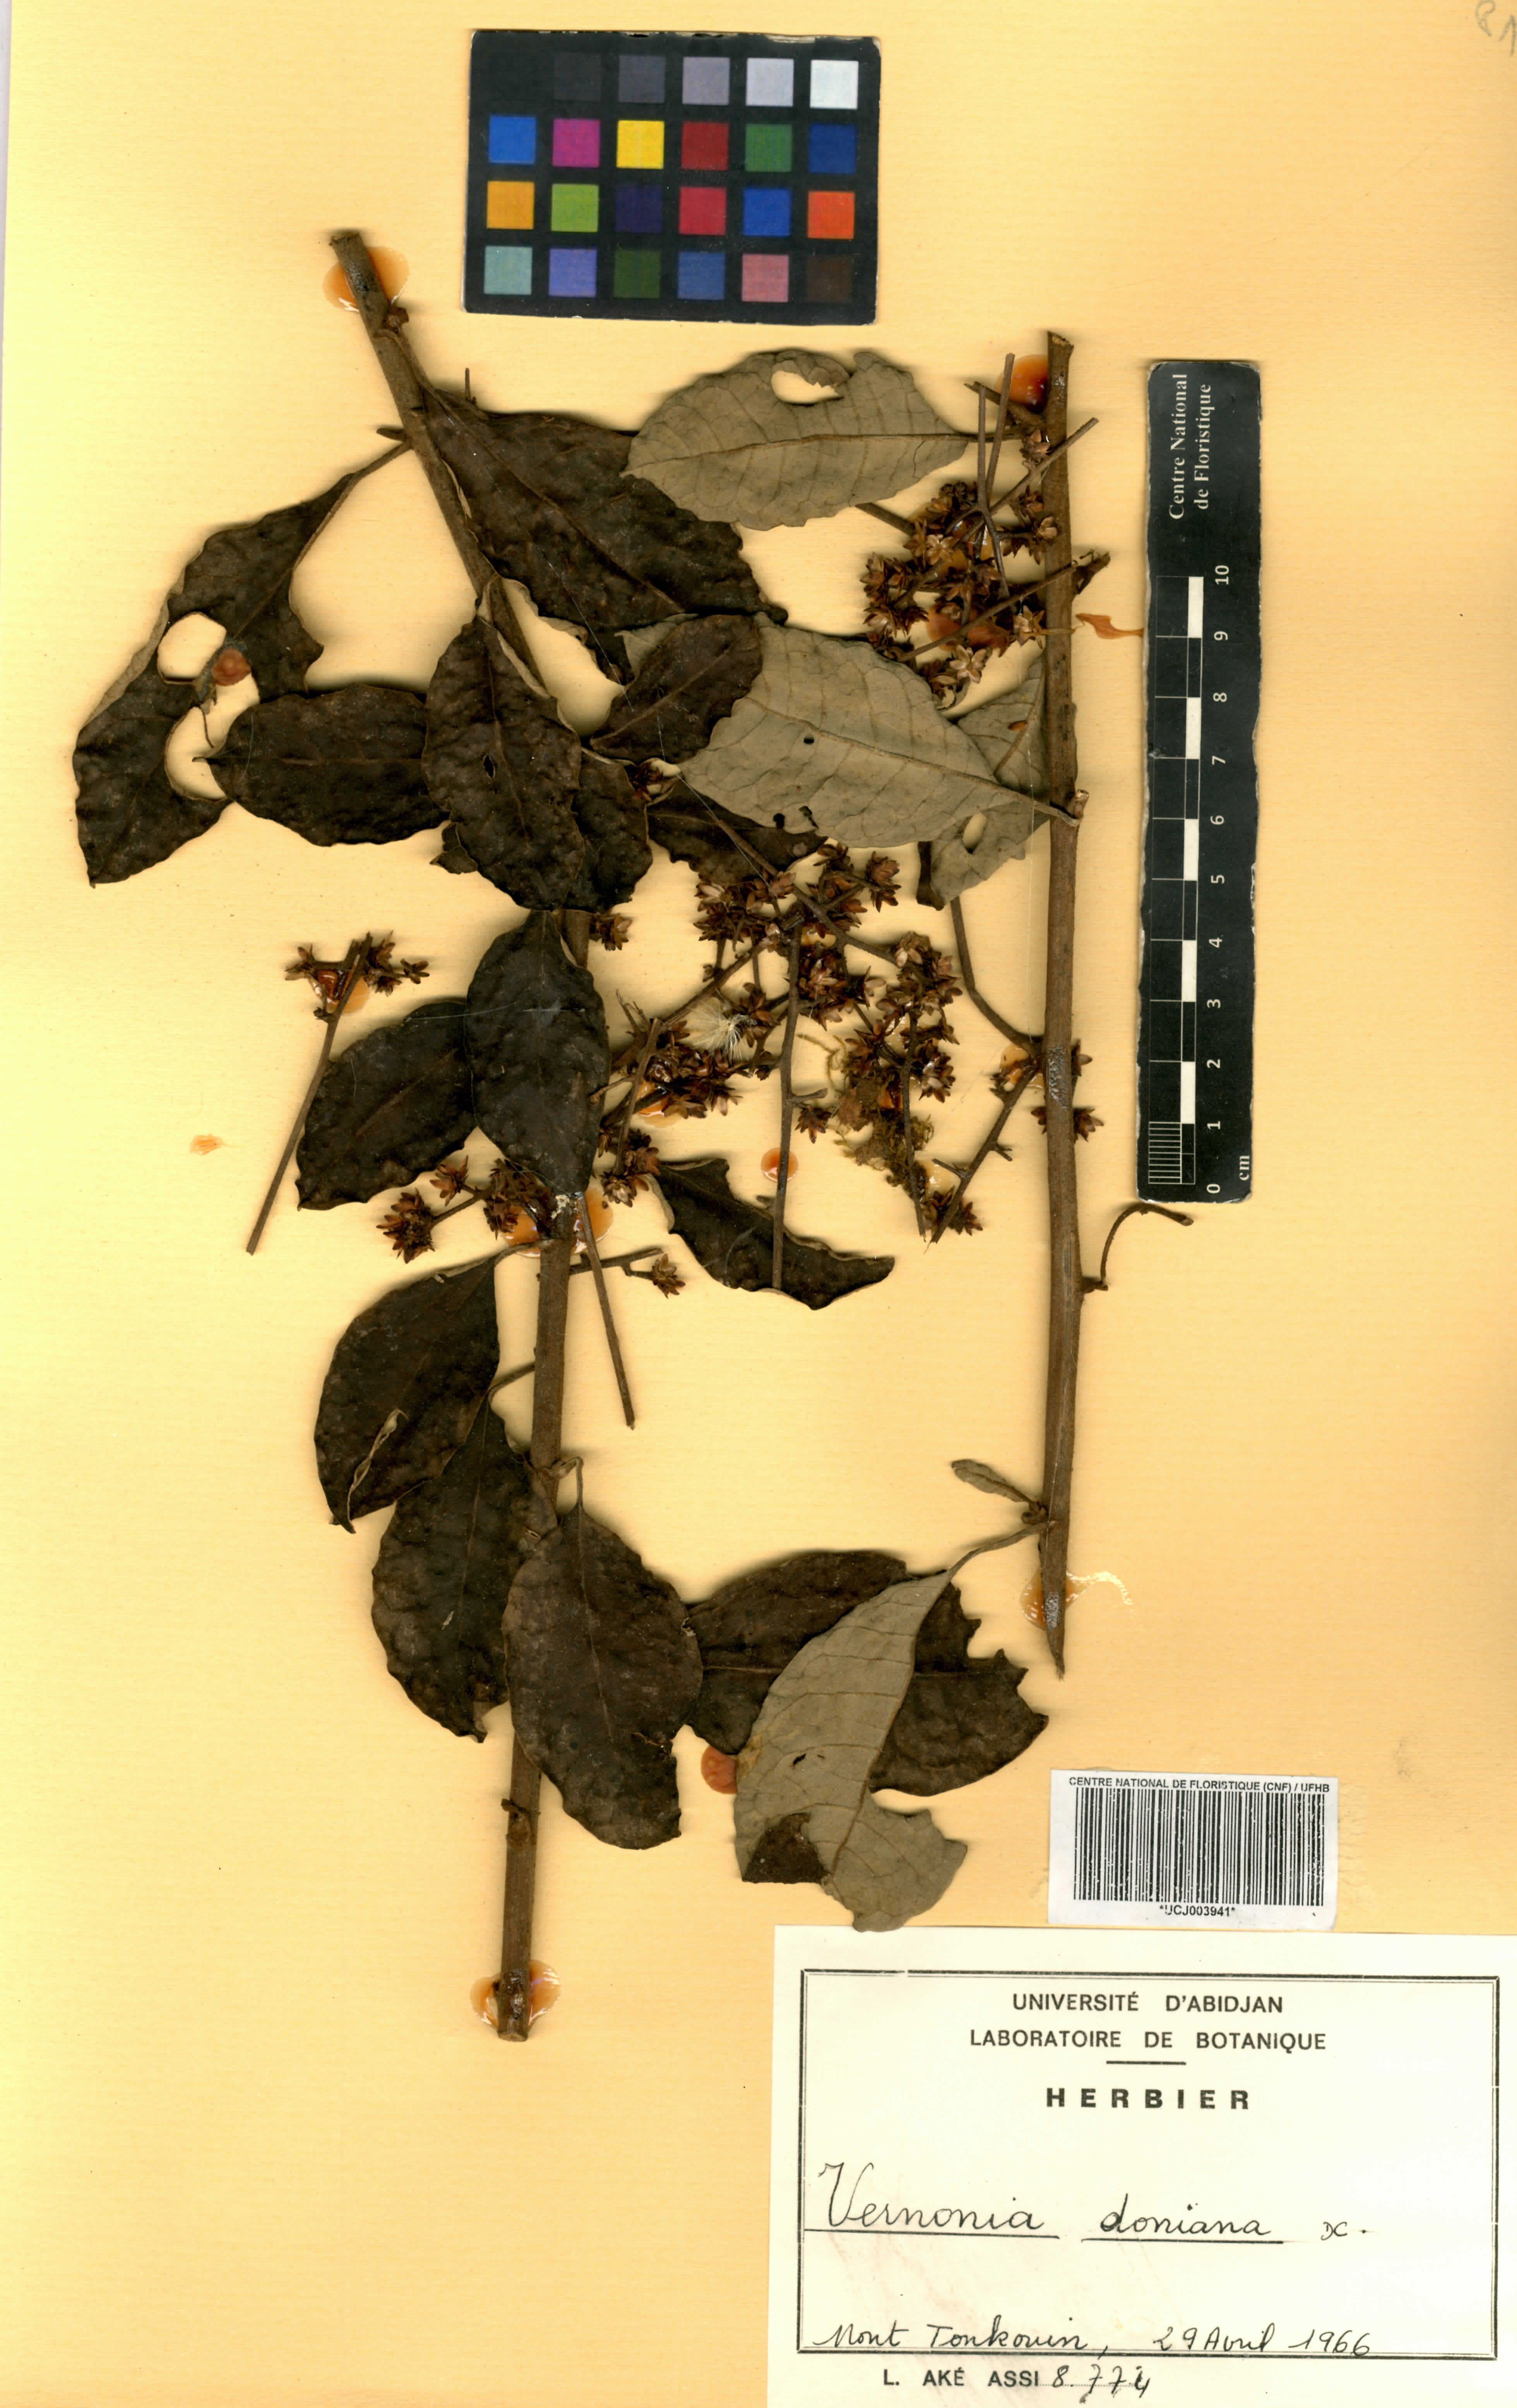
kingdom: Plantae
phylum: Tracheophyta
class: Magnoliopsida
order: Asterales
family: Asteraceae
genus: Brenandendron
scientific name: Brenandendron donianum
